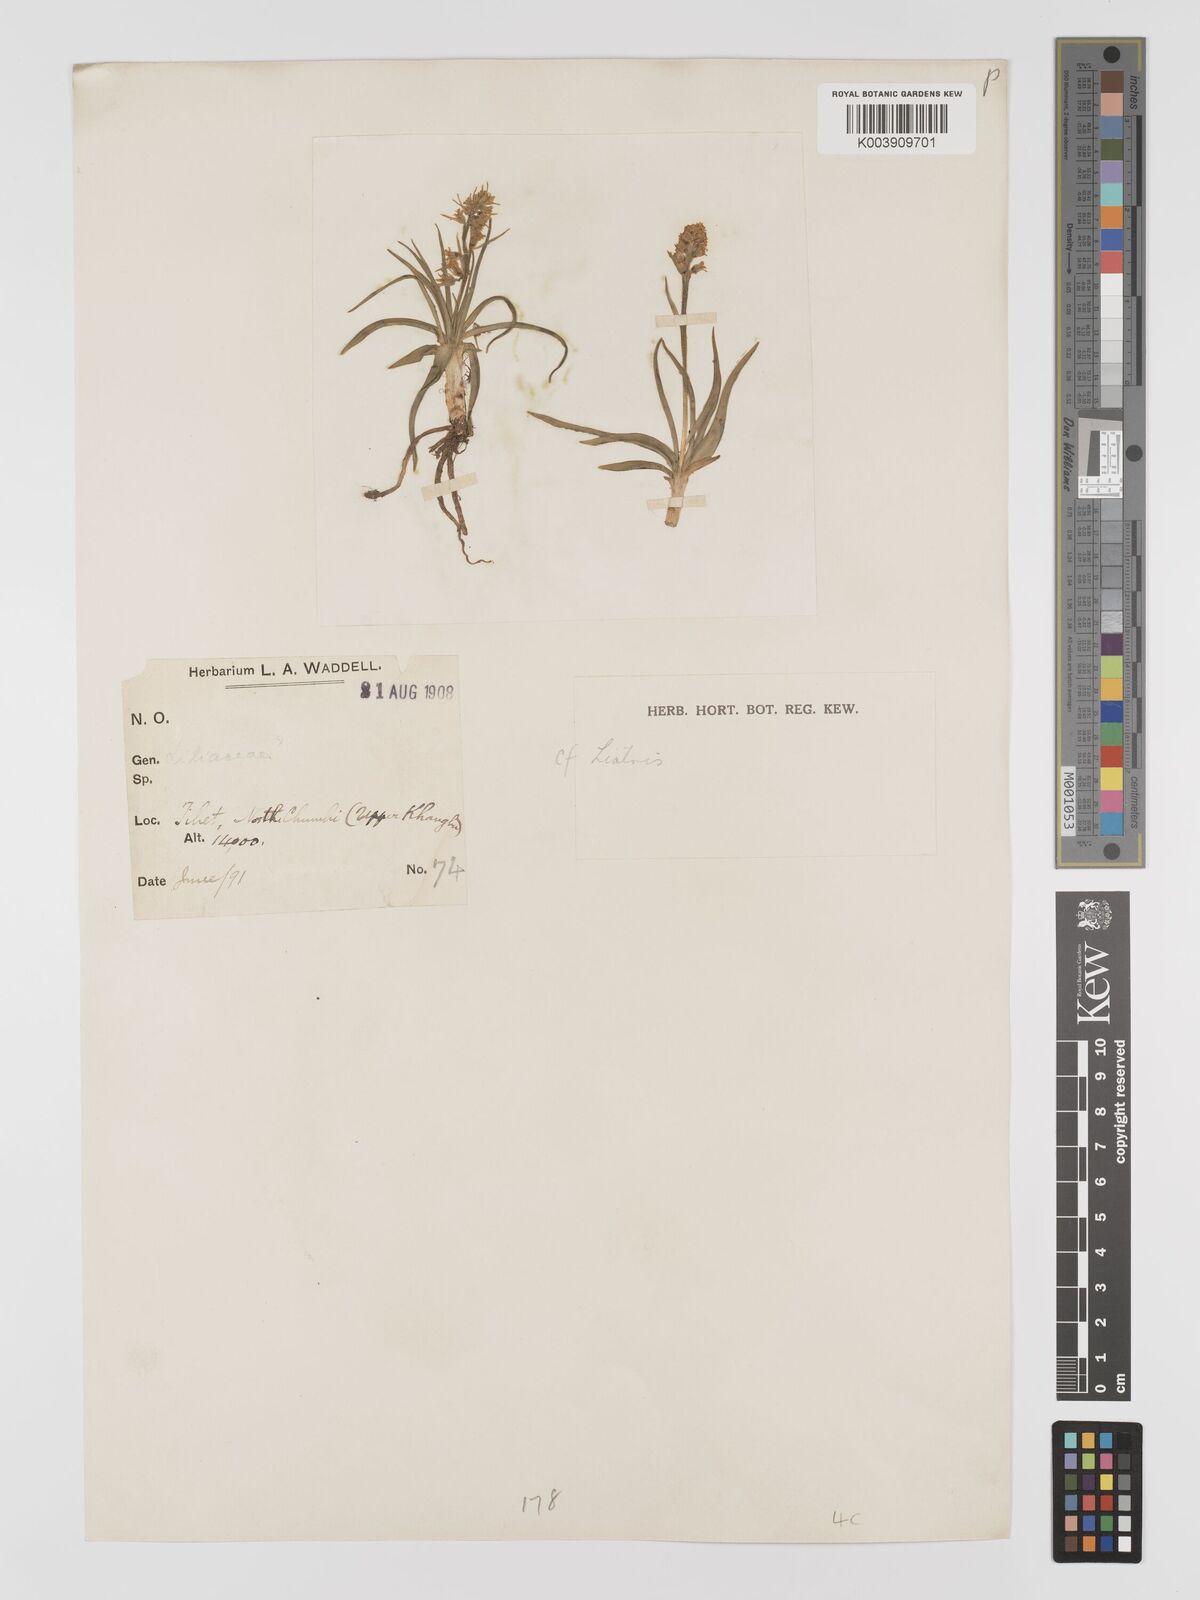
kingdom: Plantae
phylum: Tracheophyta
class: Liliopsida
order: Dioscoreales
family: Nartheciaceae
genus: Aletris
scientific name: Aletris pauciflora
